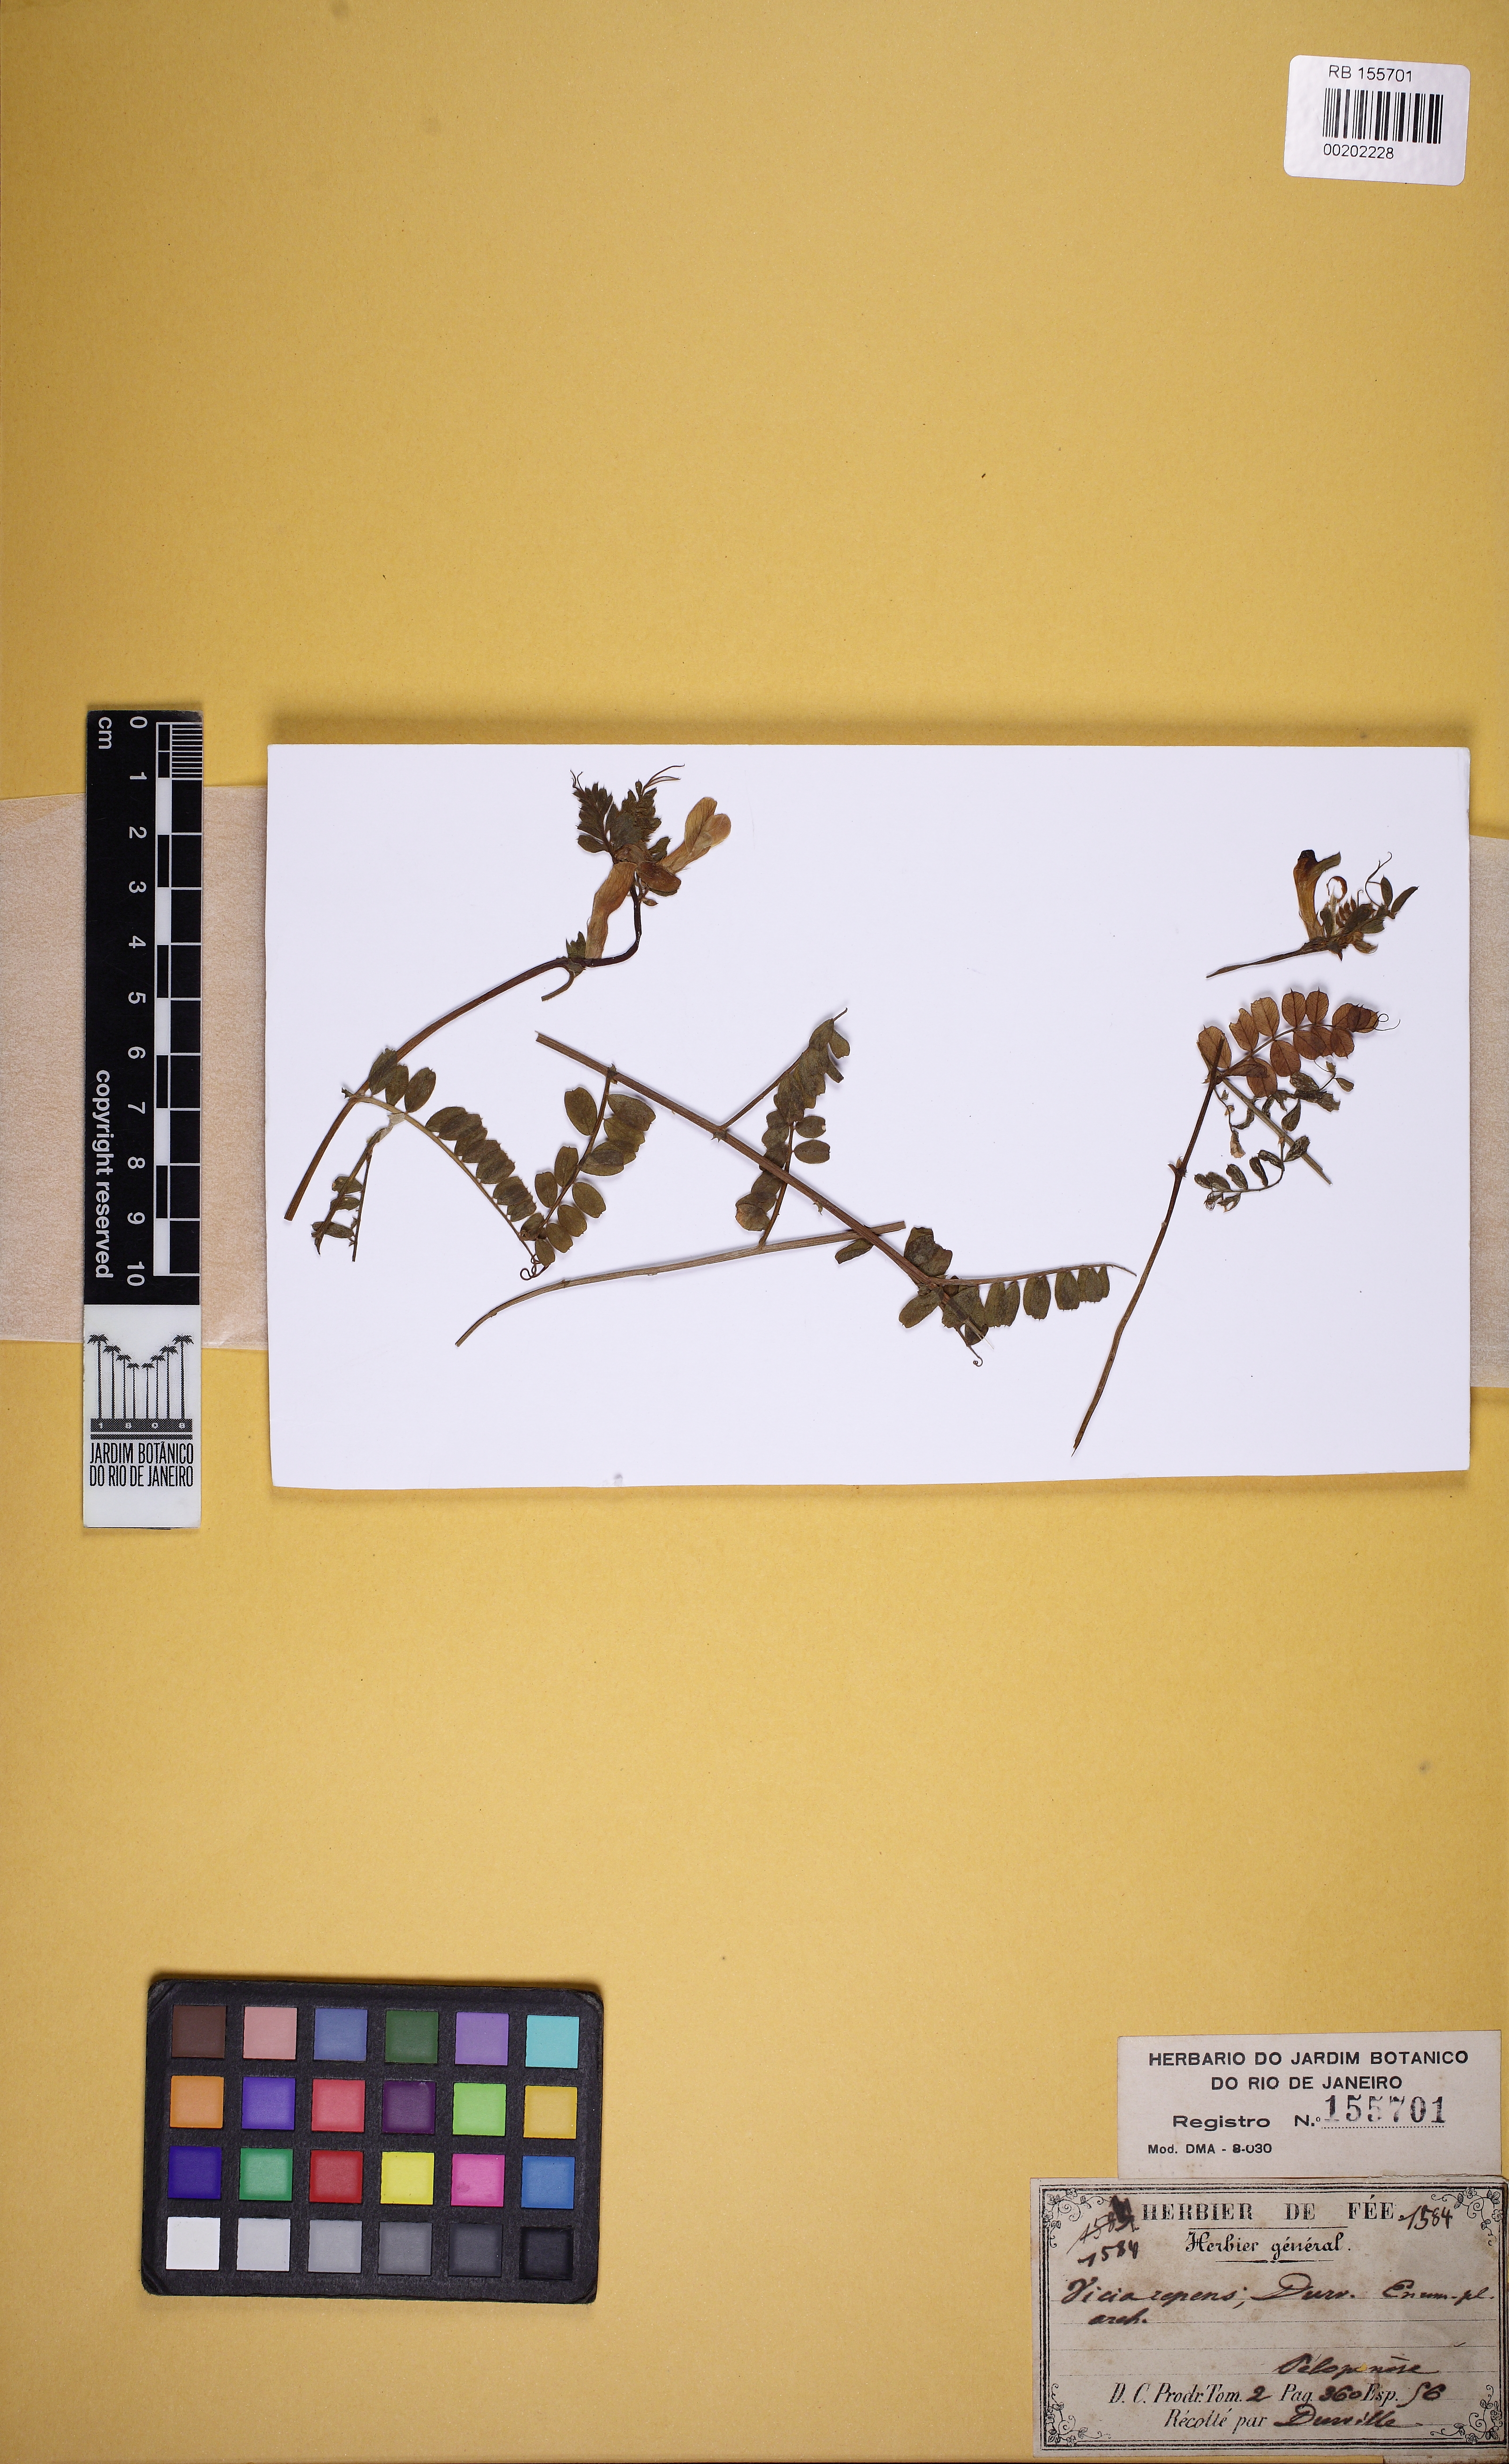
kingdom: Plantae
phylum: Tracheophyta
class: Magnoliopsida
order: Fabales
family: Fabaceae
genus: Vicia
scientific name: Vicia repens
